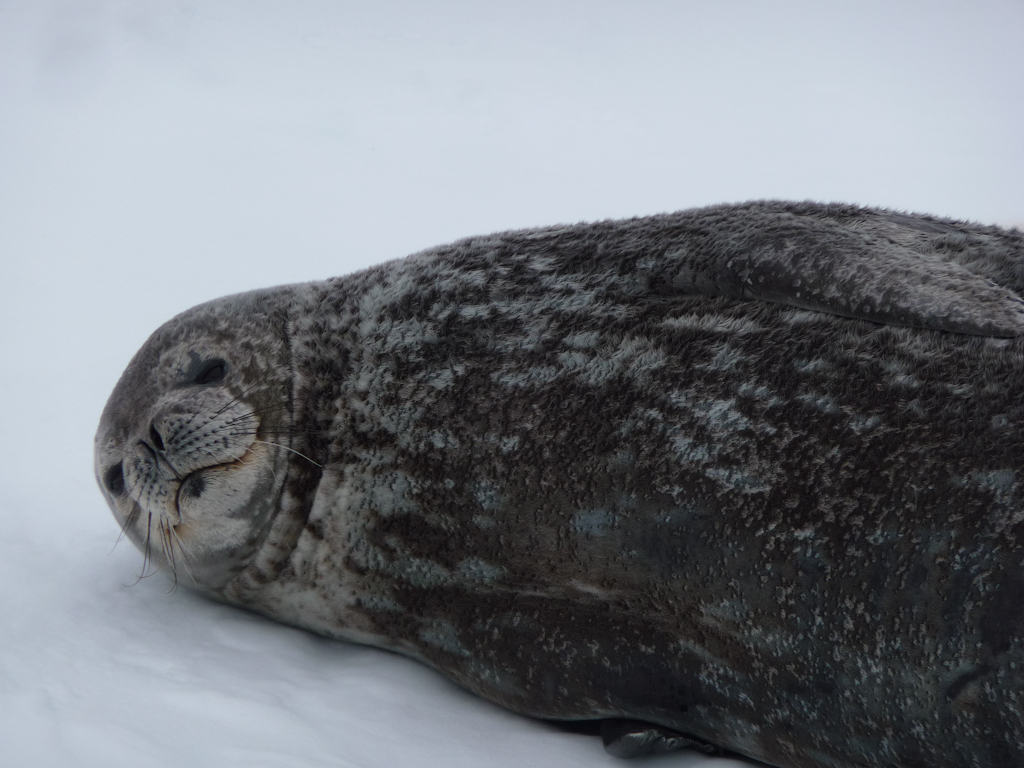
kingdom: Animalia
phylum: Chordata
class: Mammalia
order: Carnivora
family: Phocidae
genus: Leptonychotes
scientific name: Leptonychotes weddellii
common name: Weddell Seal
